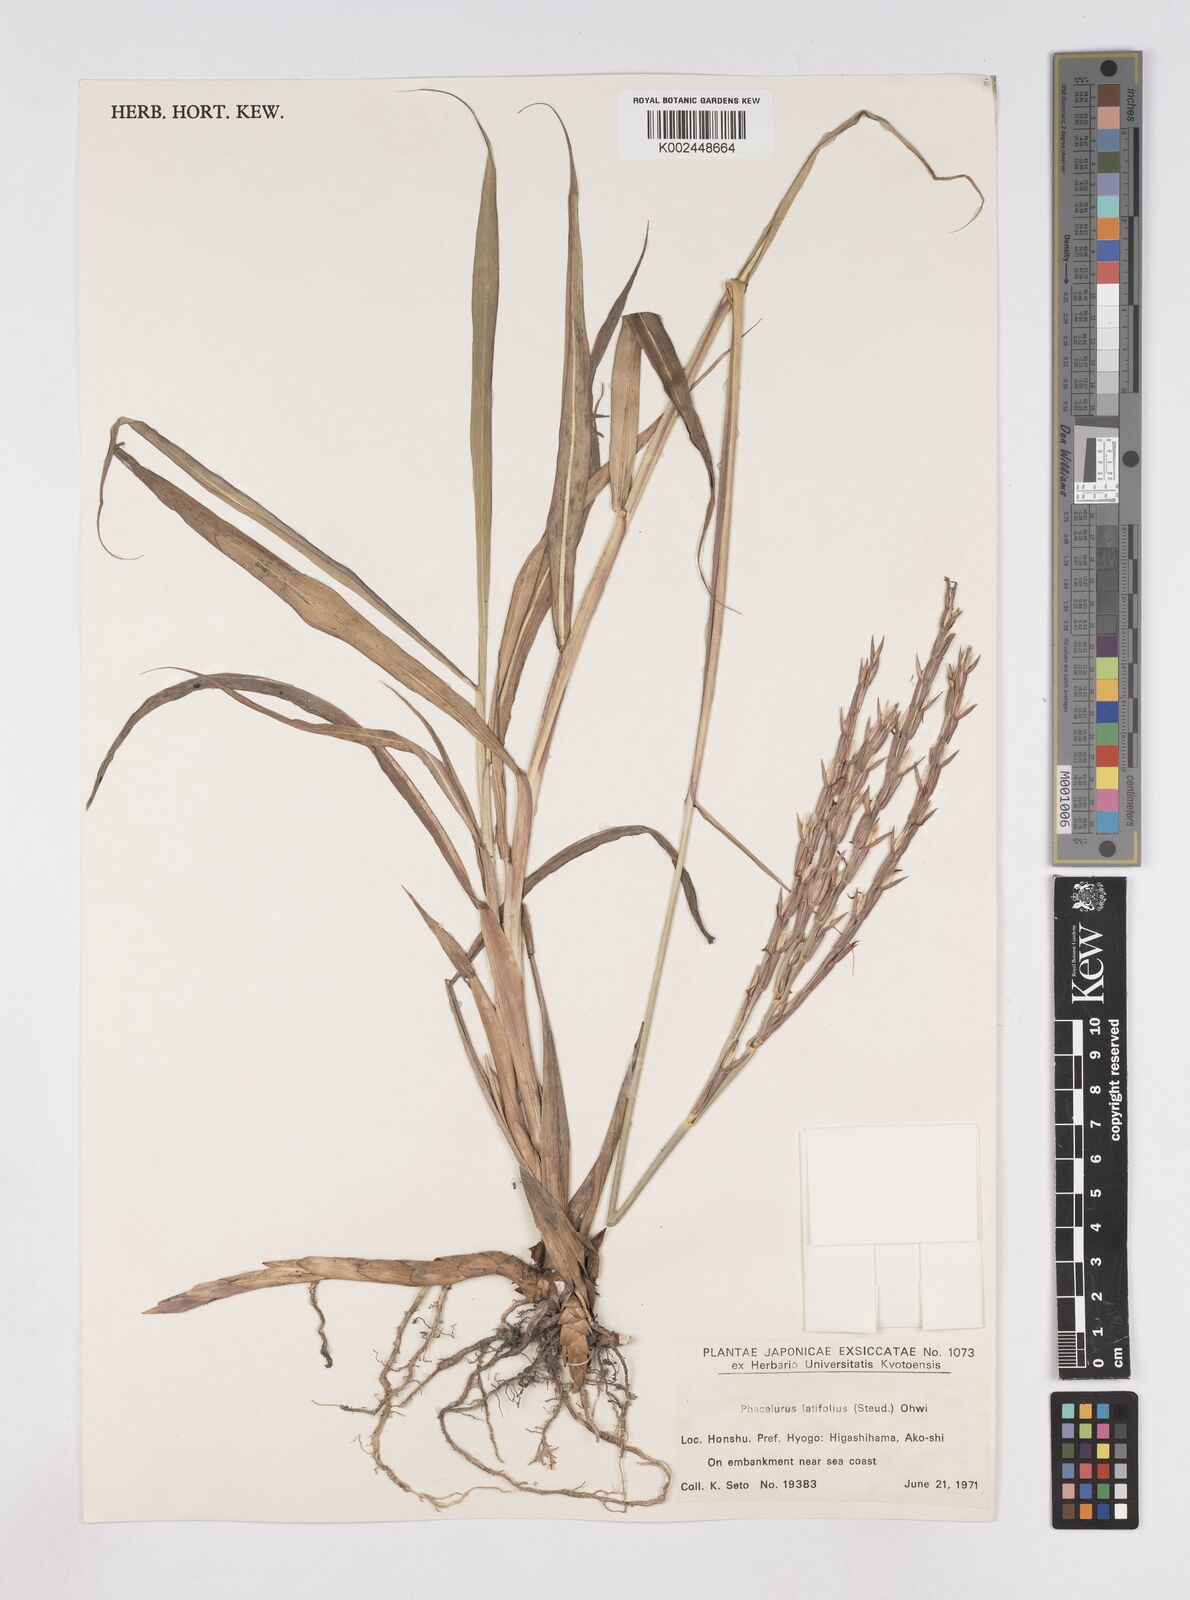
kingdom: Plantae
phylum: Tracheophyta
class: Liliopsida
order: Poales
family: Poaceae
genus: Phacelurus
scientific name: Phacelurus latifolius
